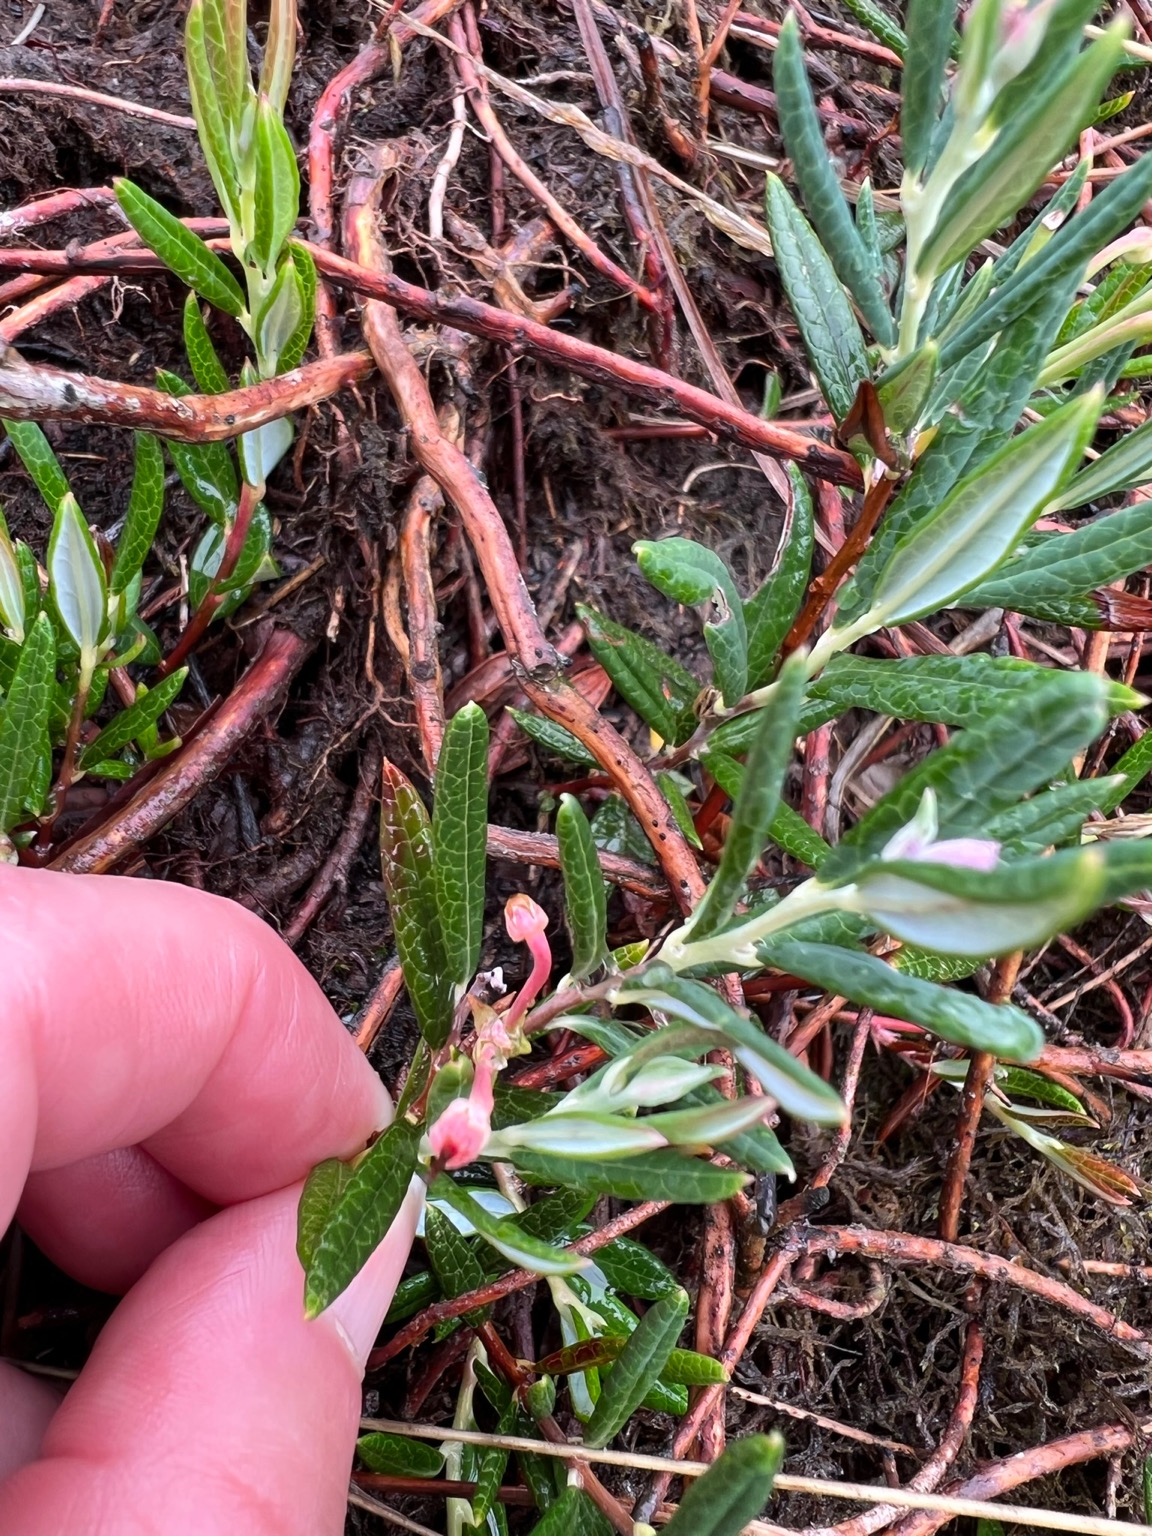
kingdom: Plantae
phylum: Tracheophyta
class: Magnoliopsida
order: Ericales
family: Ericaceae
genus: Andromeda
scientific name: Andromeda polifolia
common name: Rosmarinlyng
